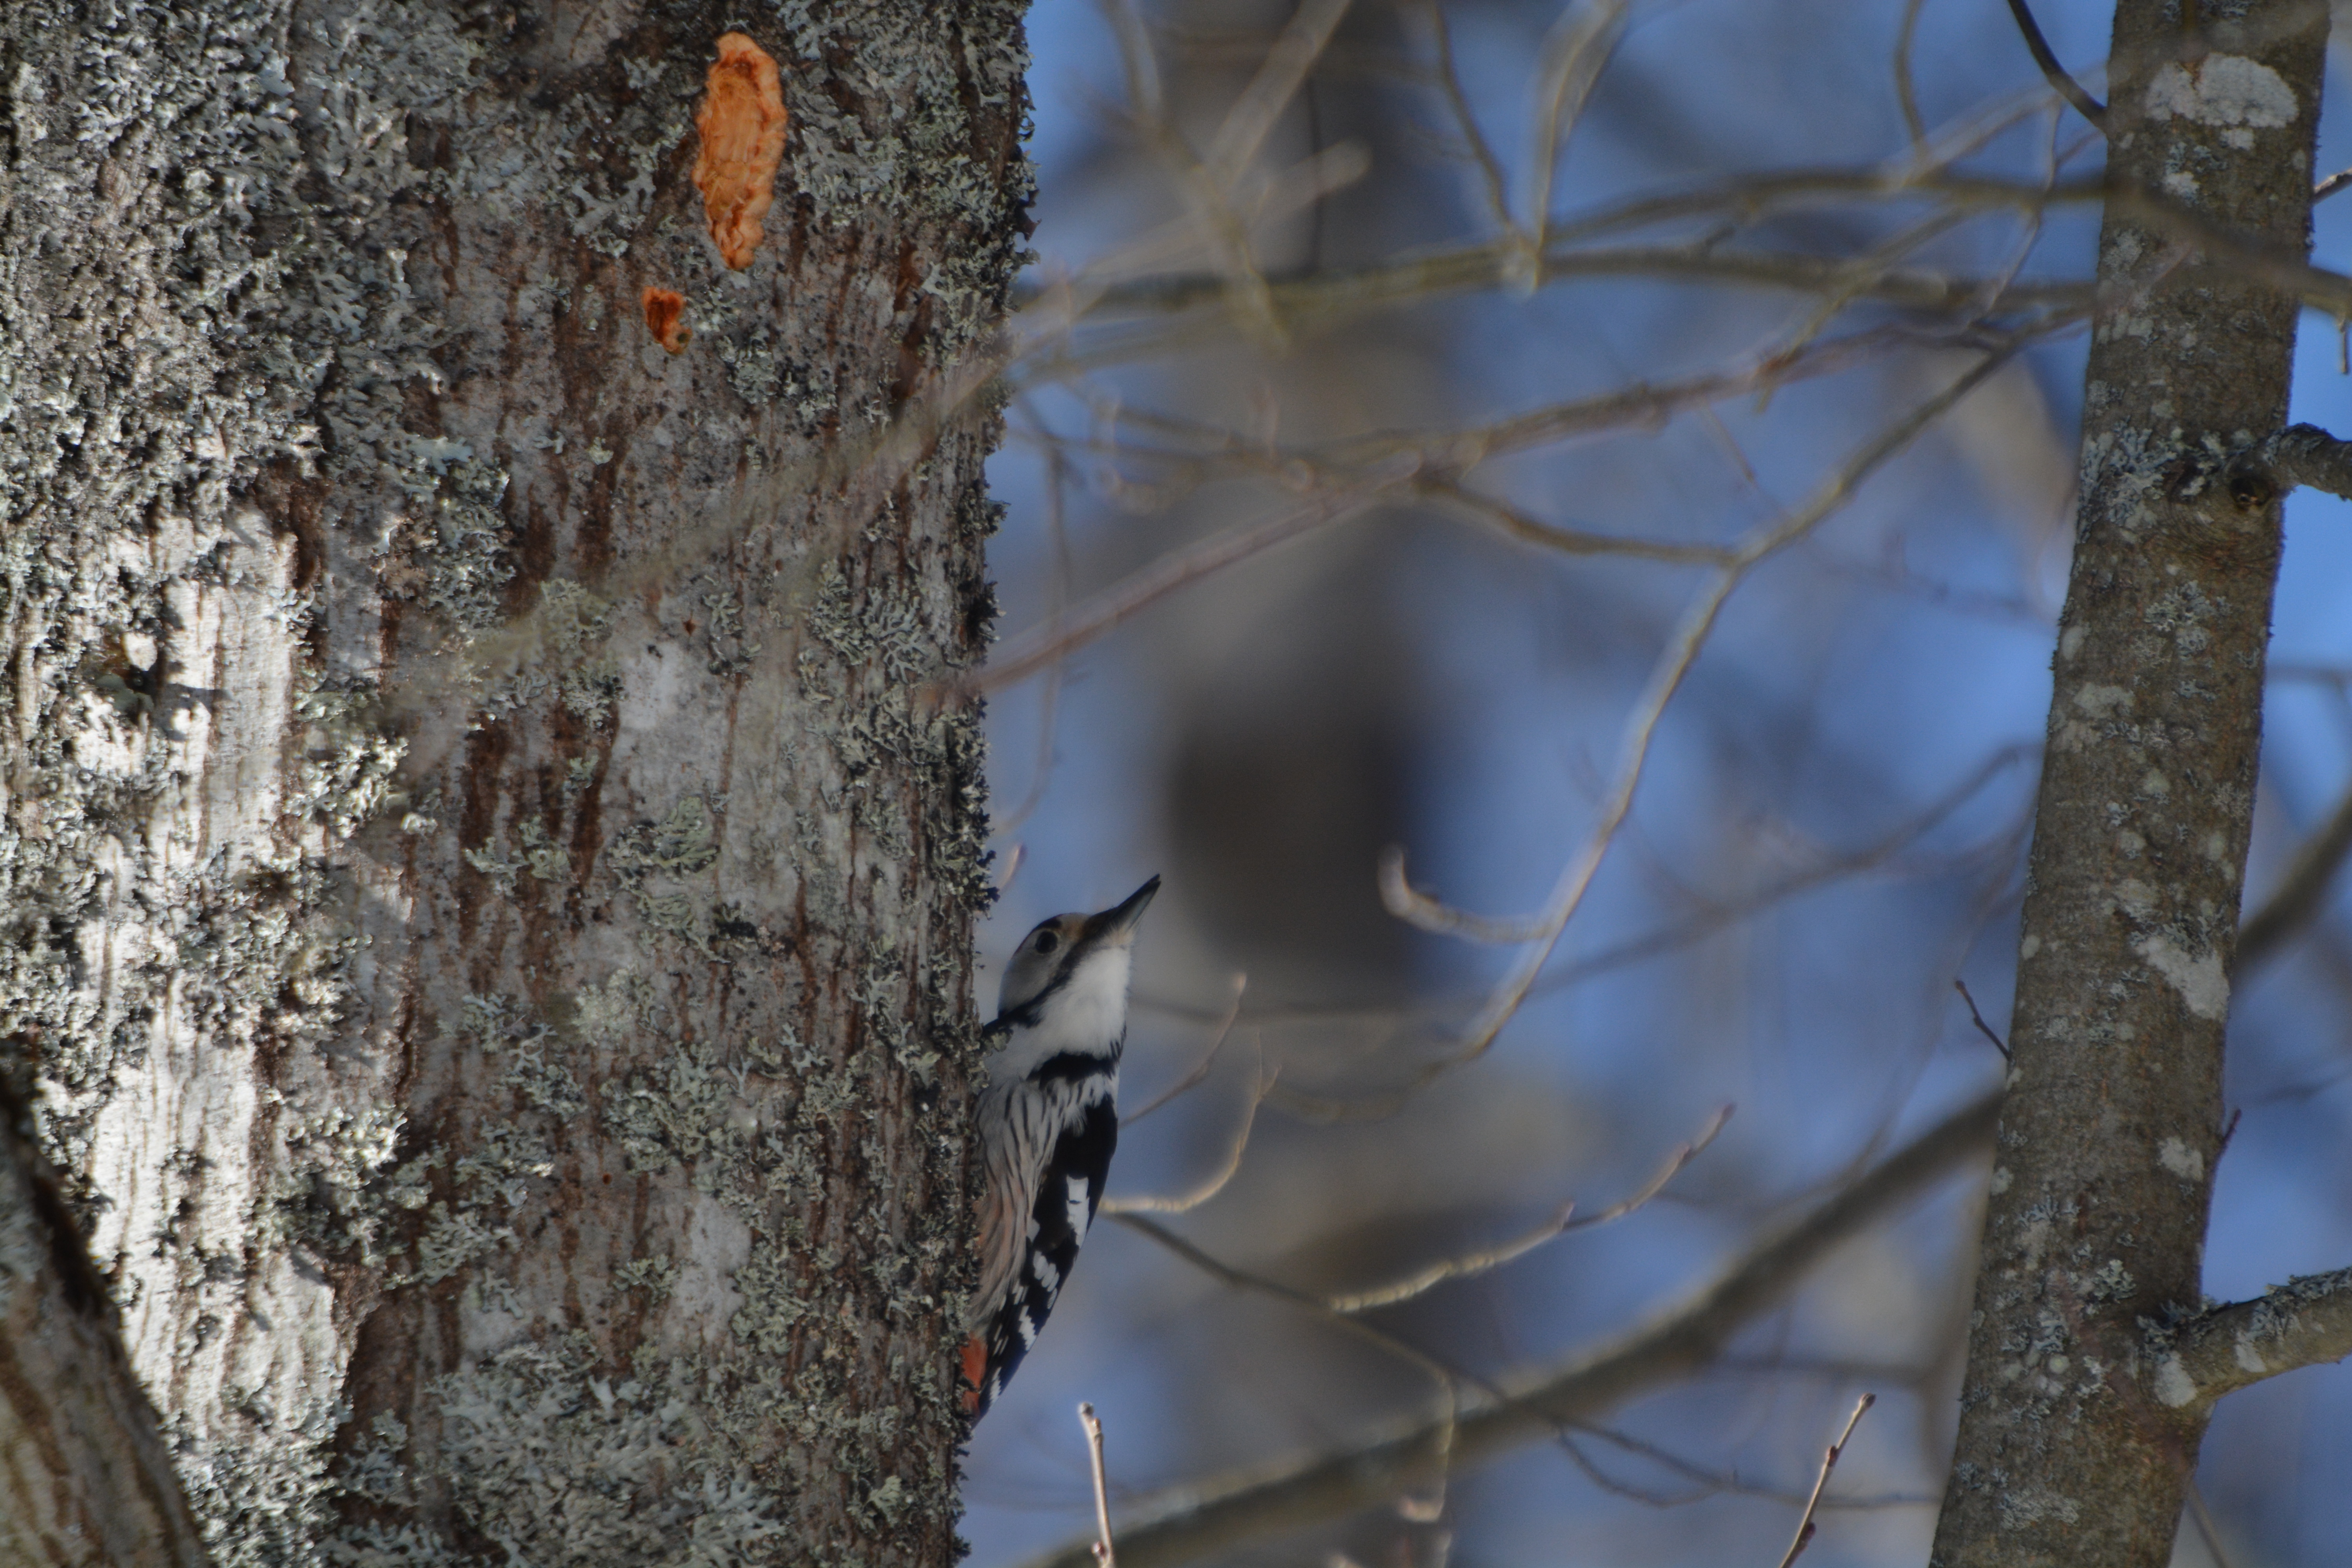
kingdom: Animalia
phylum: Chordata
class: Aves
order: Piciformes
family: Picidae
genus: Dendrocopos
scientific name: Dendrocopos leucotos
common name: White-backed woodpecker
